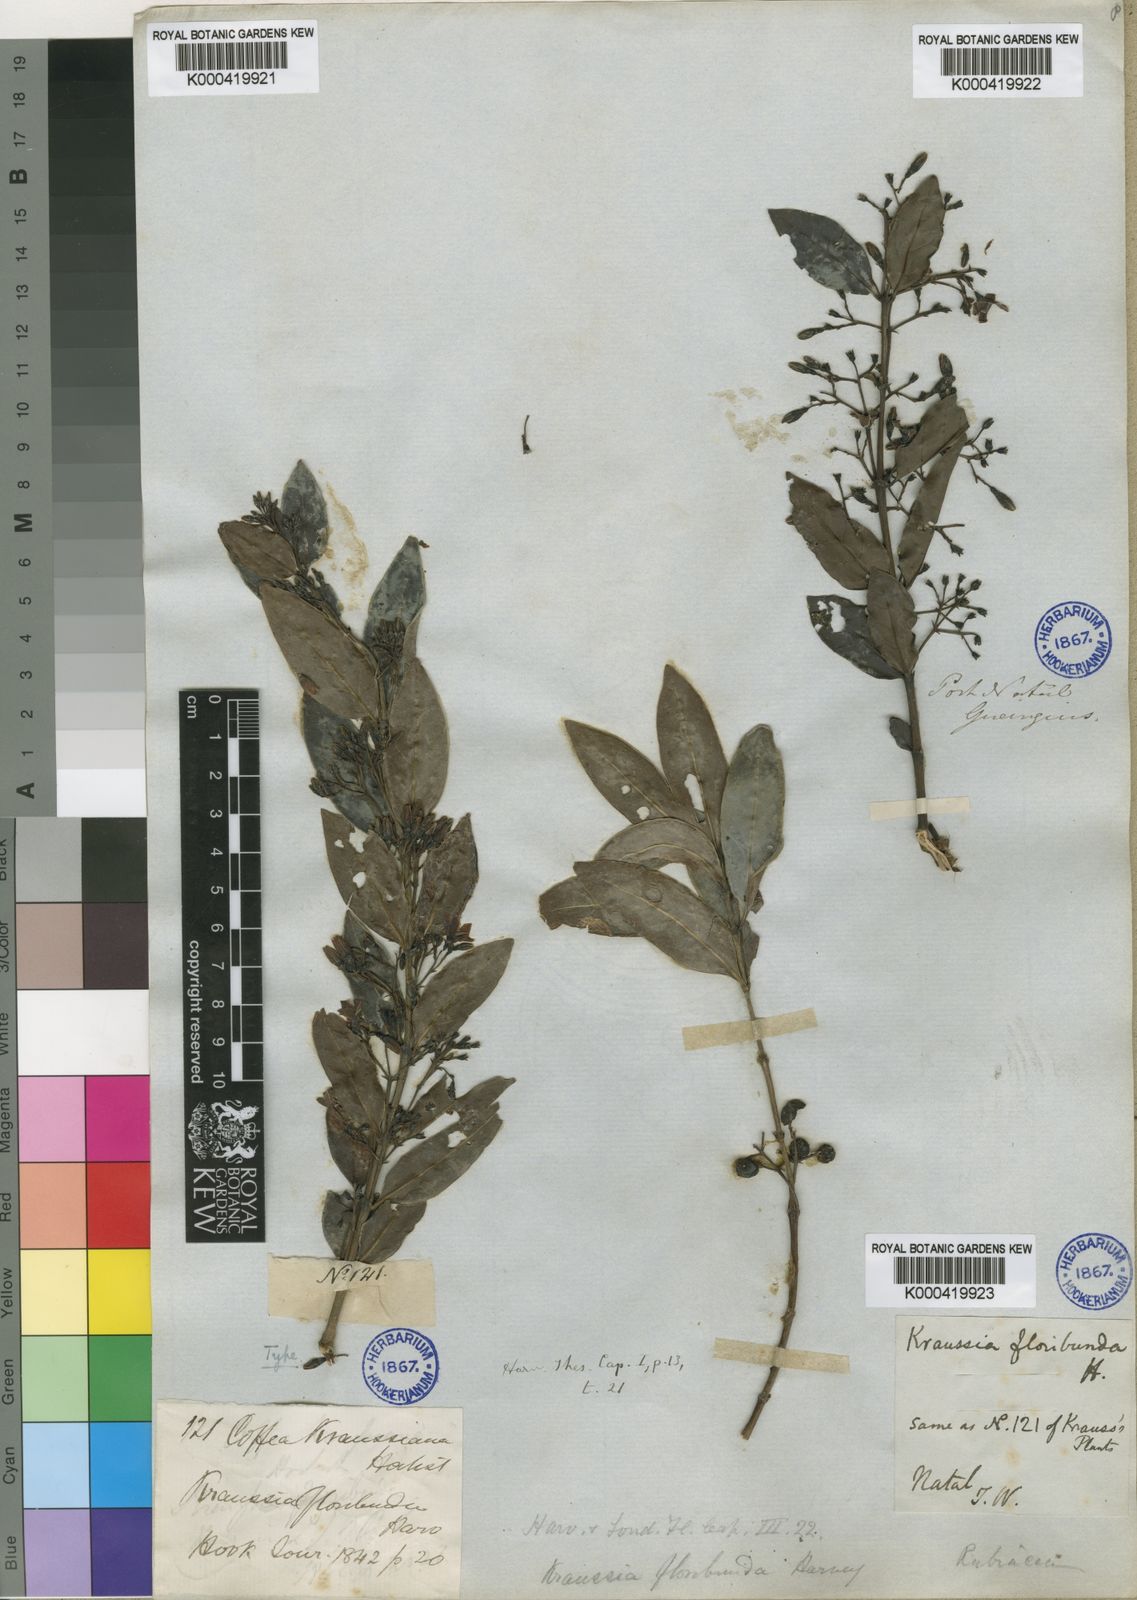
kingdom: Plantae
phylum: Tracheophyta
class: Magnoliopsida
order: Gentianales
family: Rubiaceae
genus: Kraussia
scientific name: Kraussia floribunda
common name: Rhino-coffee
